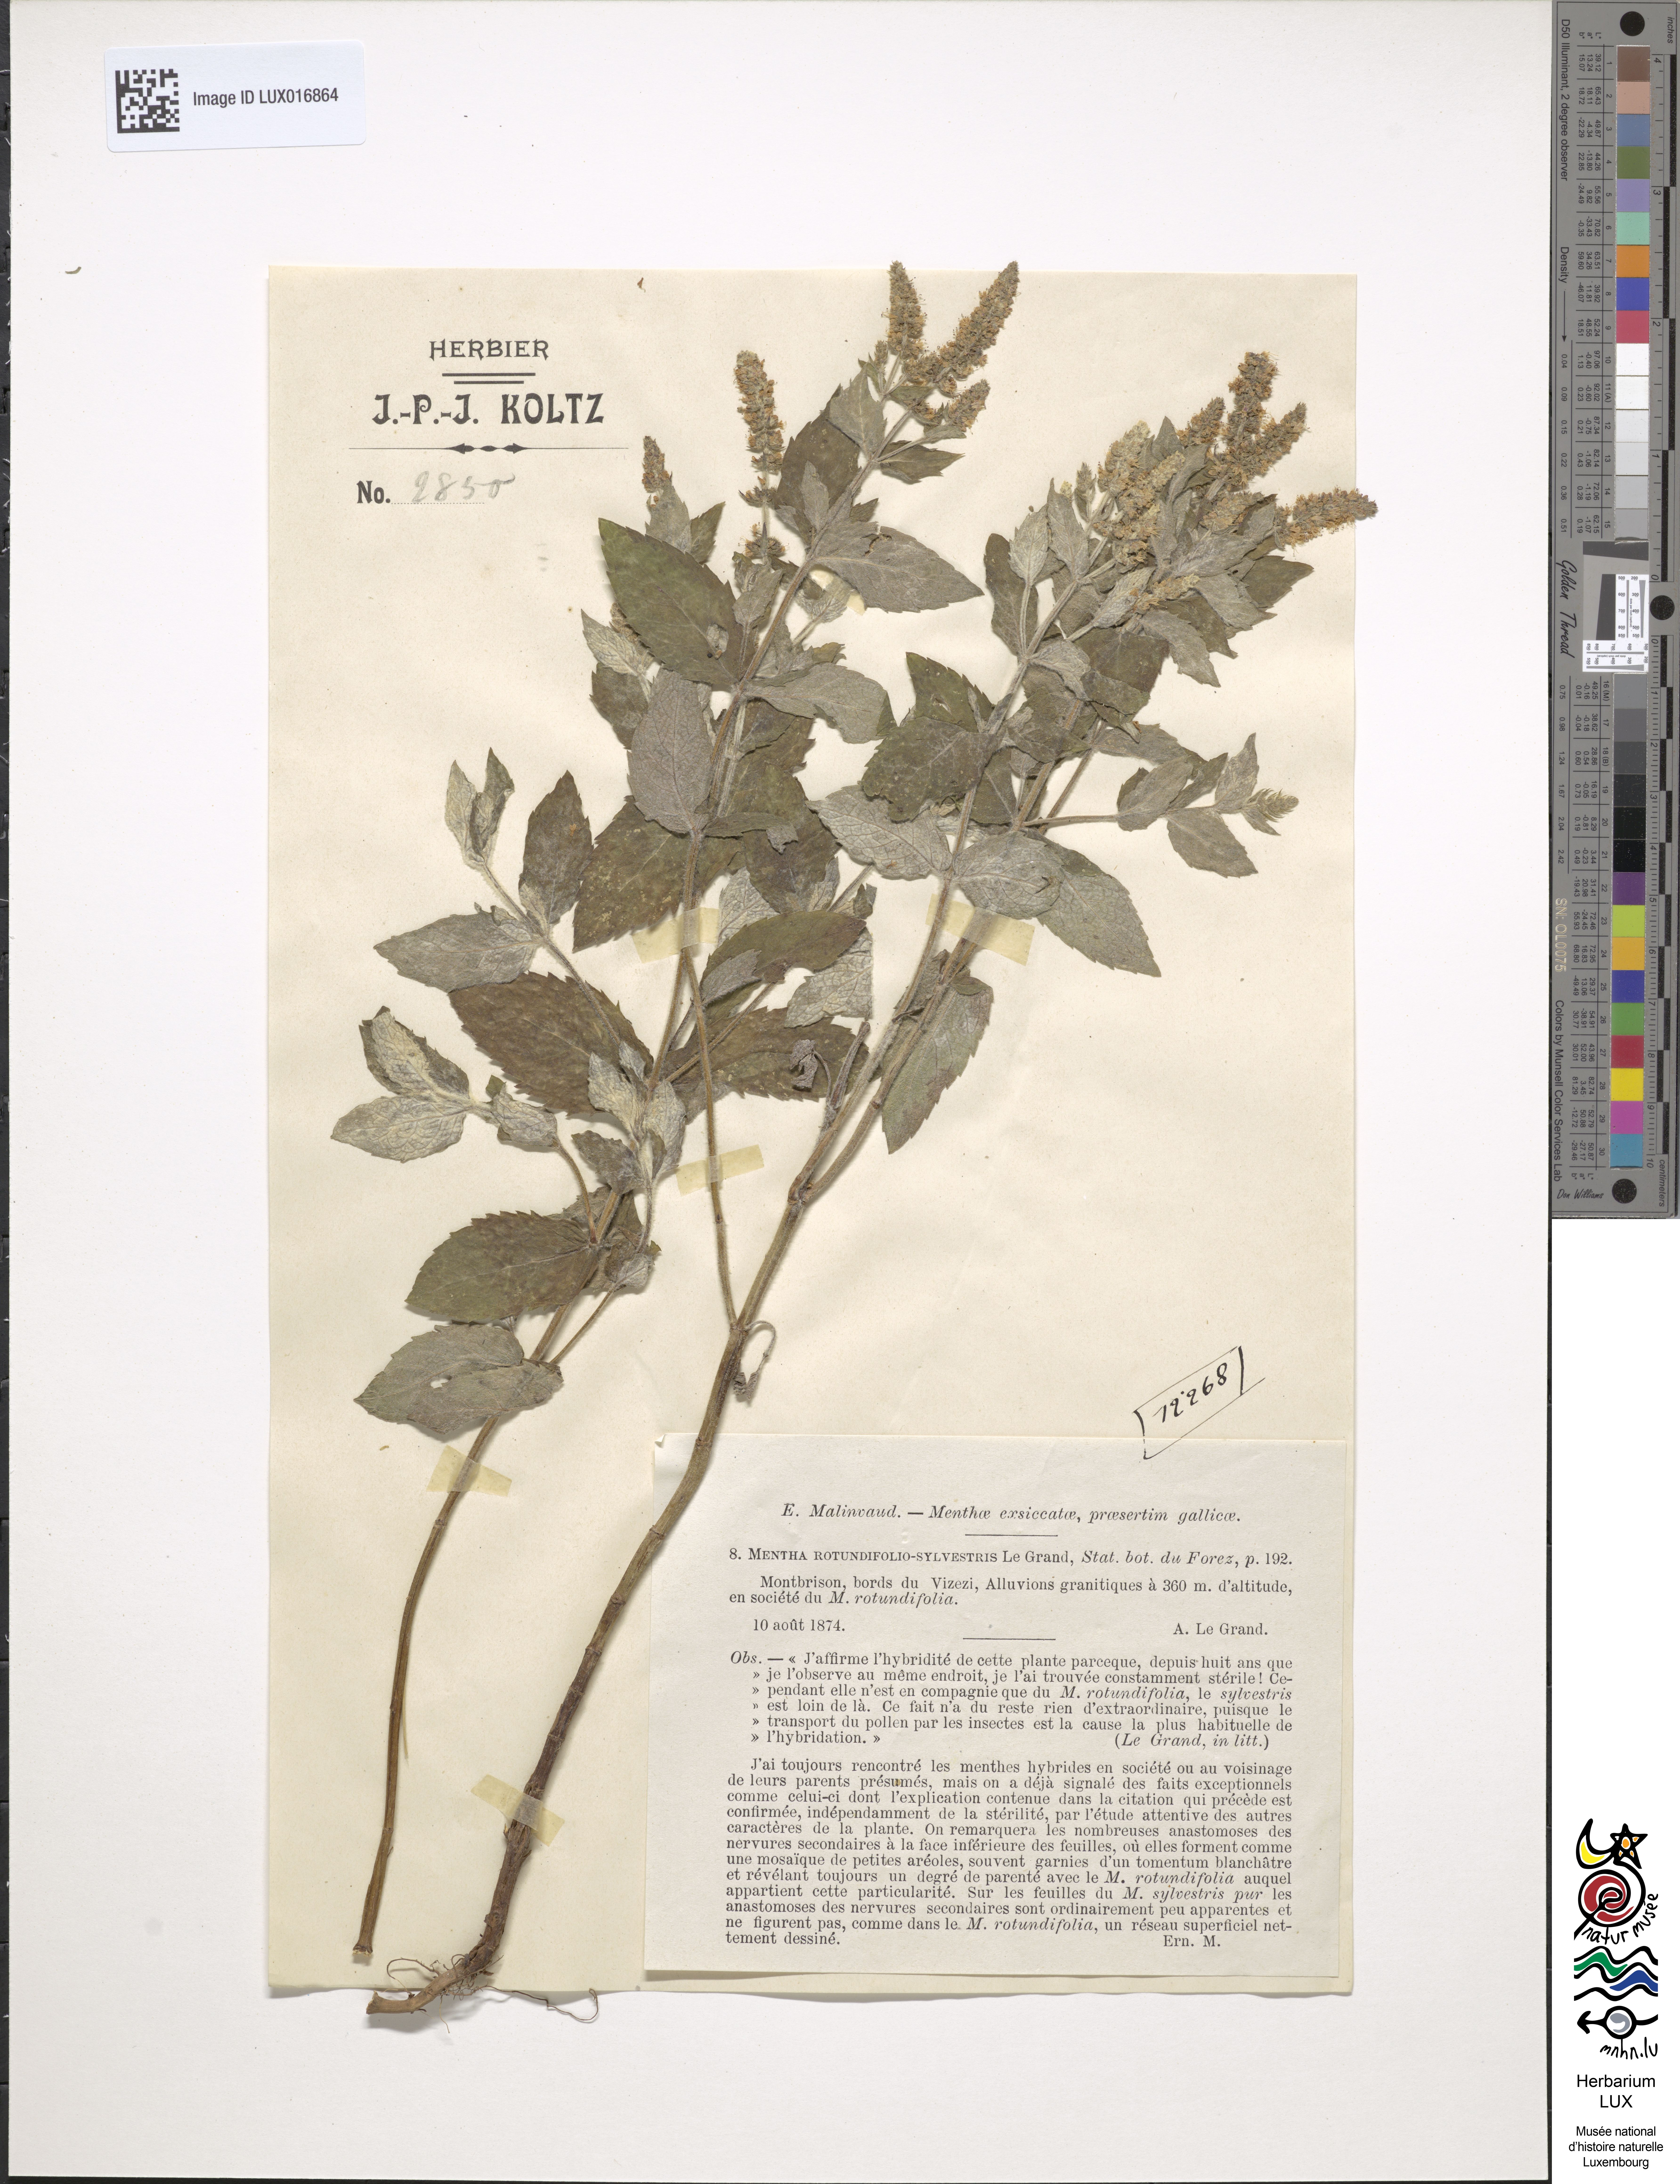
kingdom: Plantae
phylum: Tracheophyta
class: Magnoliopsida
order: Lamiales
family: Lamiaceae
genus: Mentha
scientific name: Mentha rotundifolia
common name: Bigleaf mint
